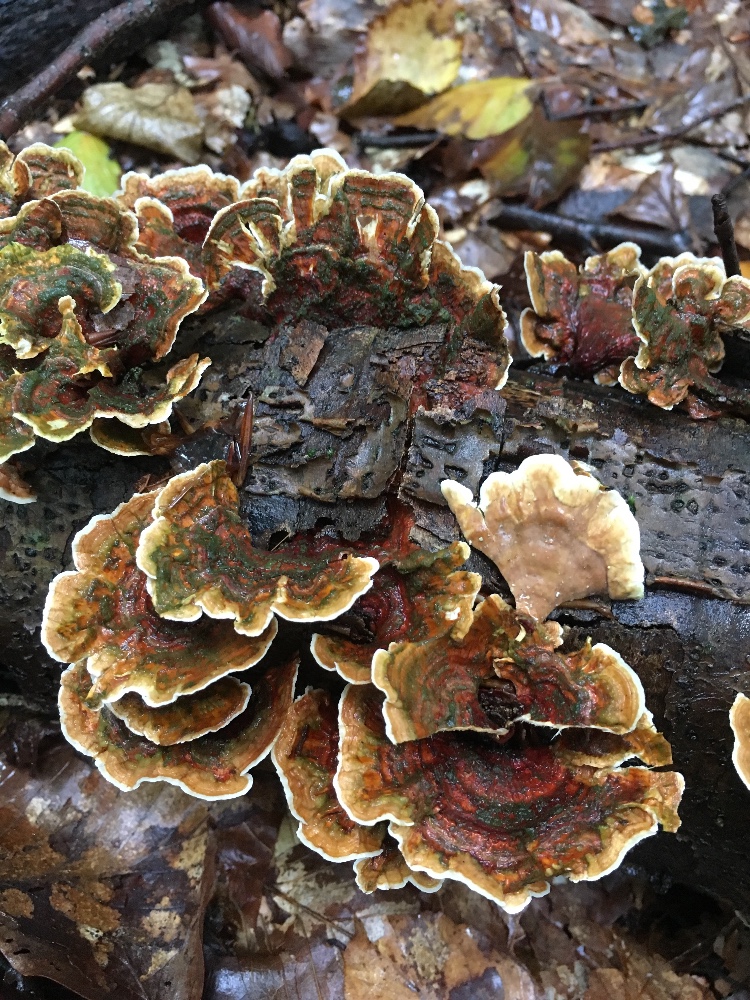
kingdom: Fungi
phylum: Basidiomycota
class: Agaricomycetes
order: Russulales
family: Stereaceae
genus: Stereum
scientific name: Stereum subtomentosum
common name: smuk lædersvamp
